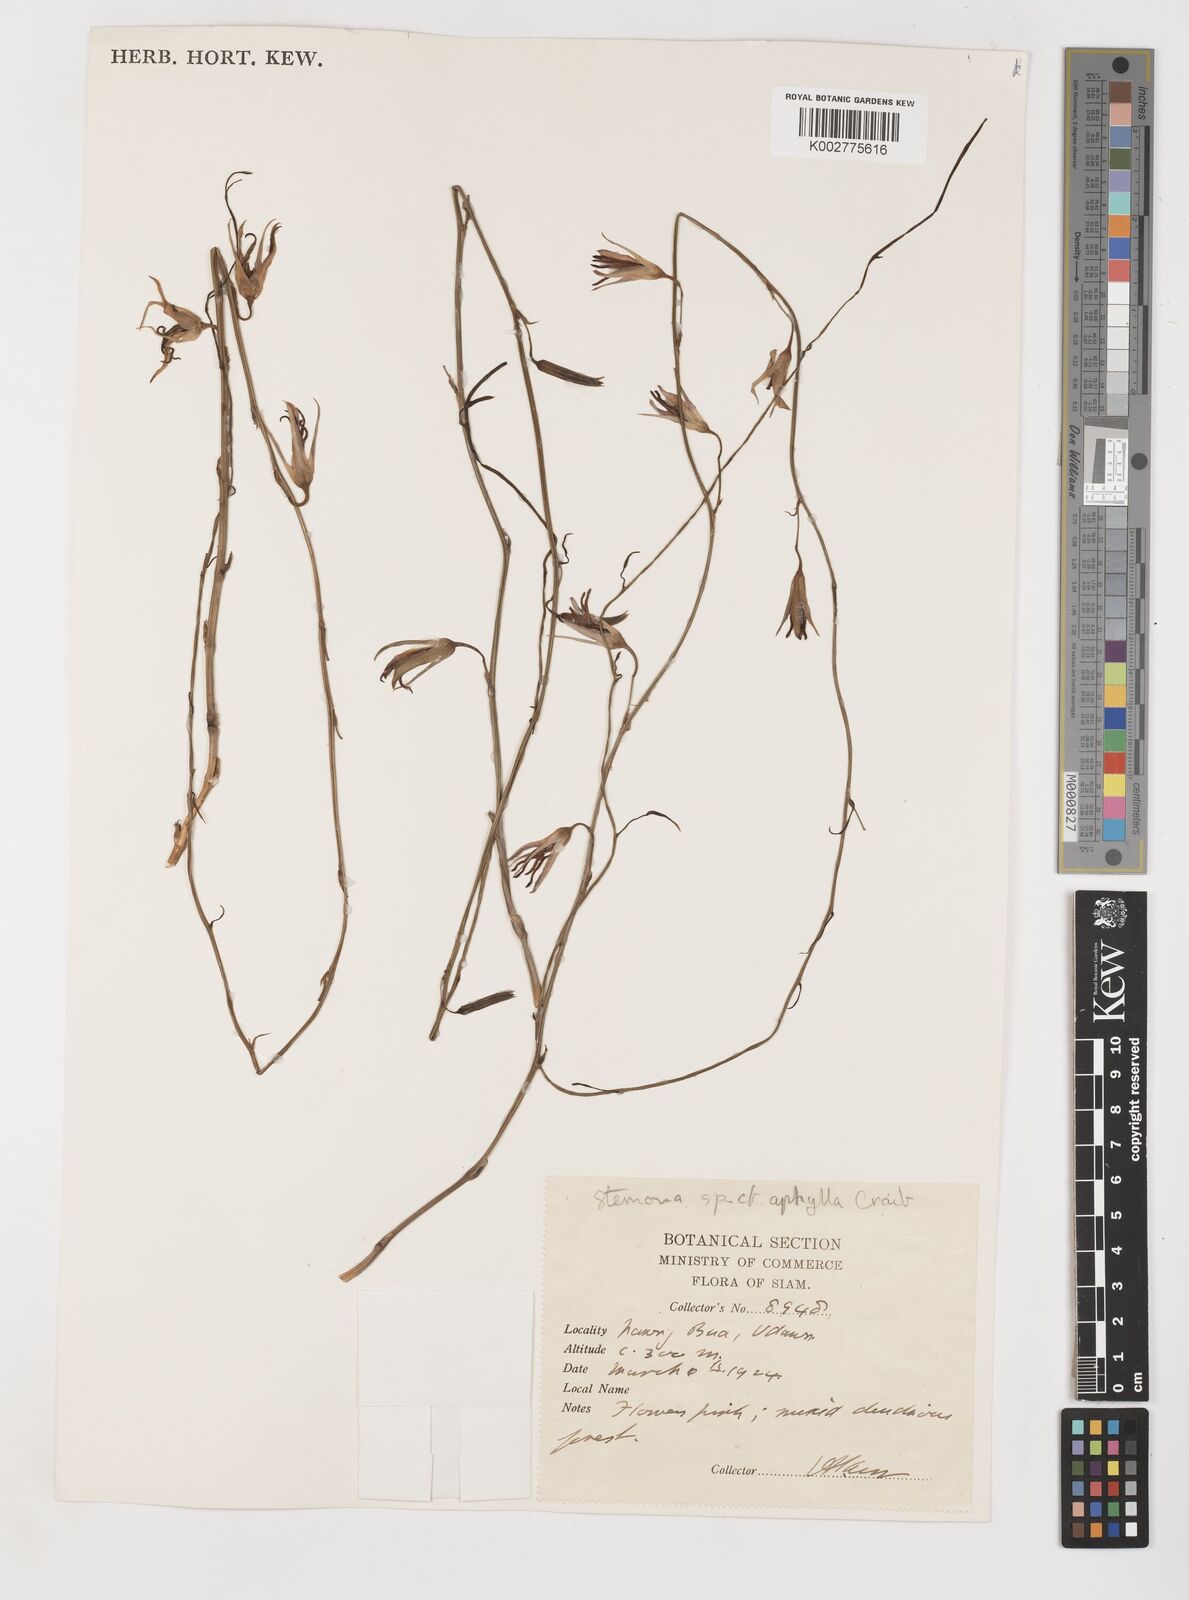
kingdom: Plantae
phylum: Tracheophyta
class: Liliopsida
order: Pandanales
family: Stemonaceae
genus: Stemona
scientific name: Stemona aphylla
